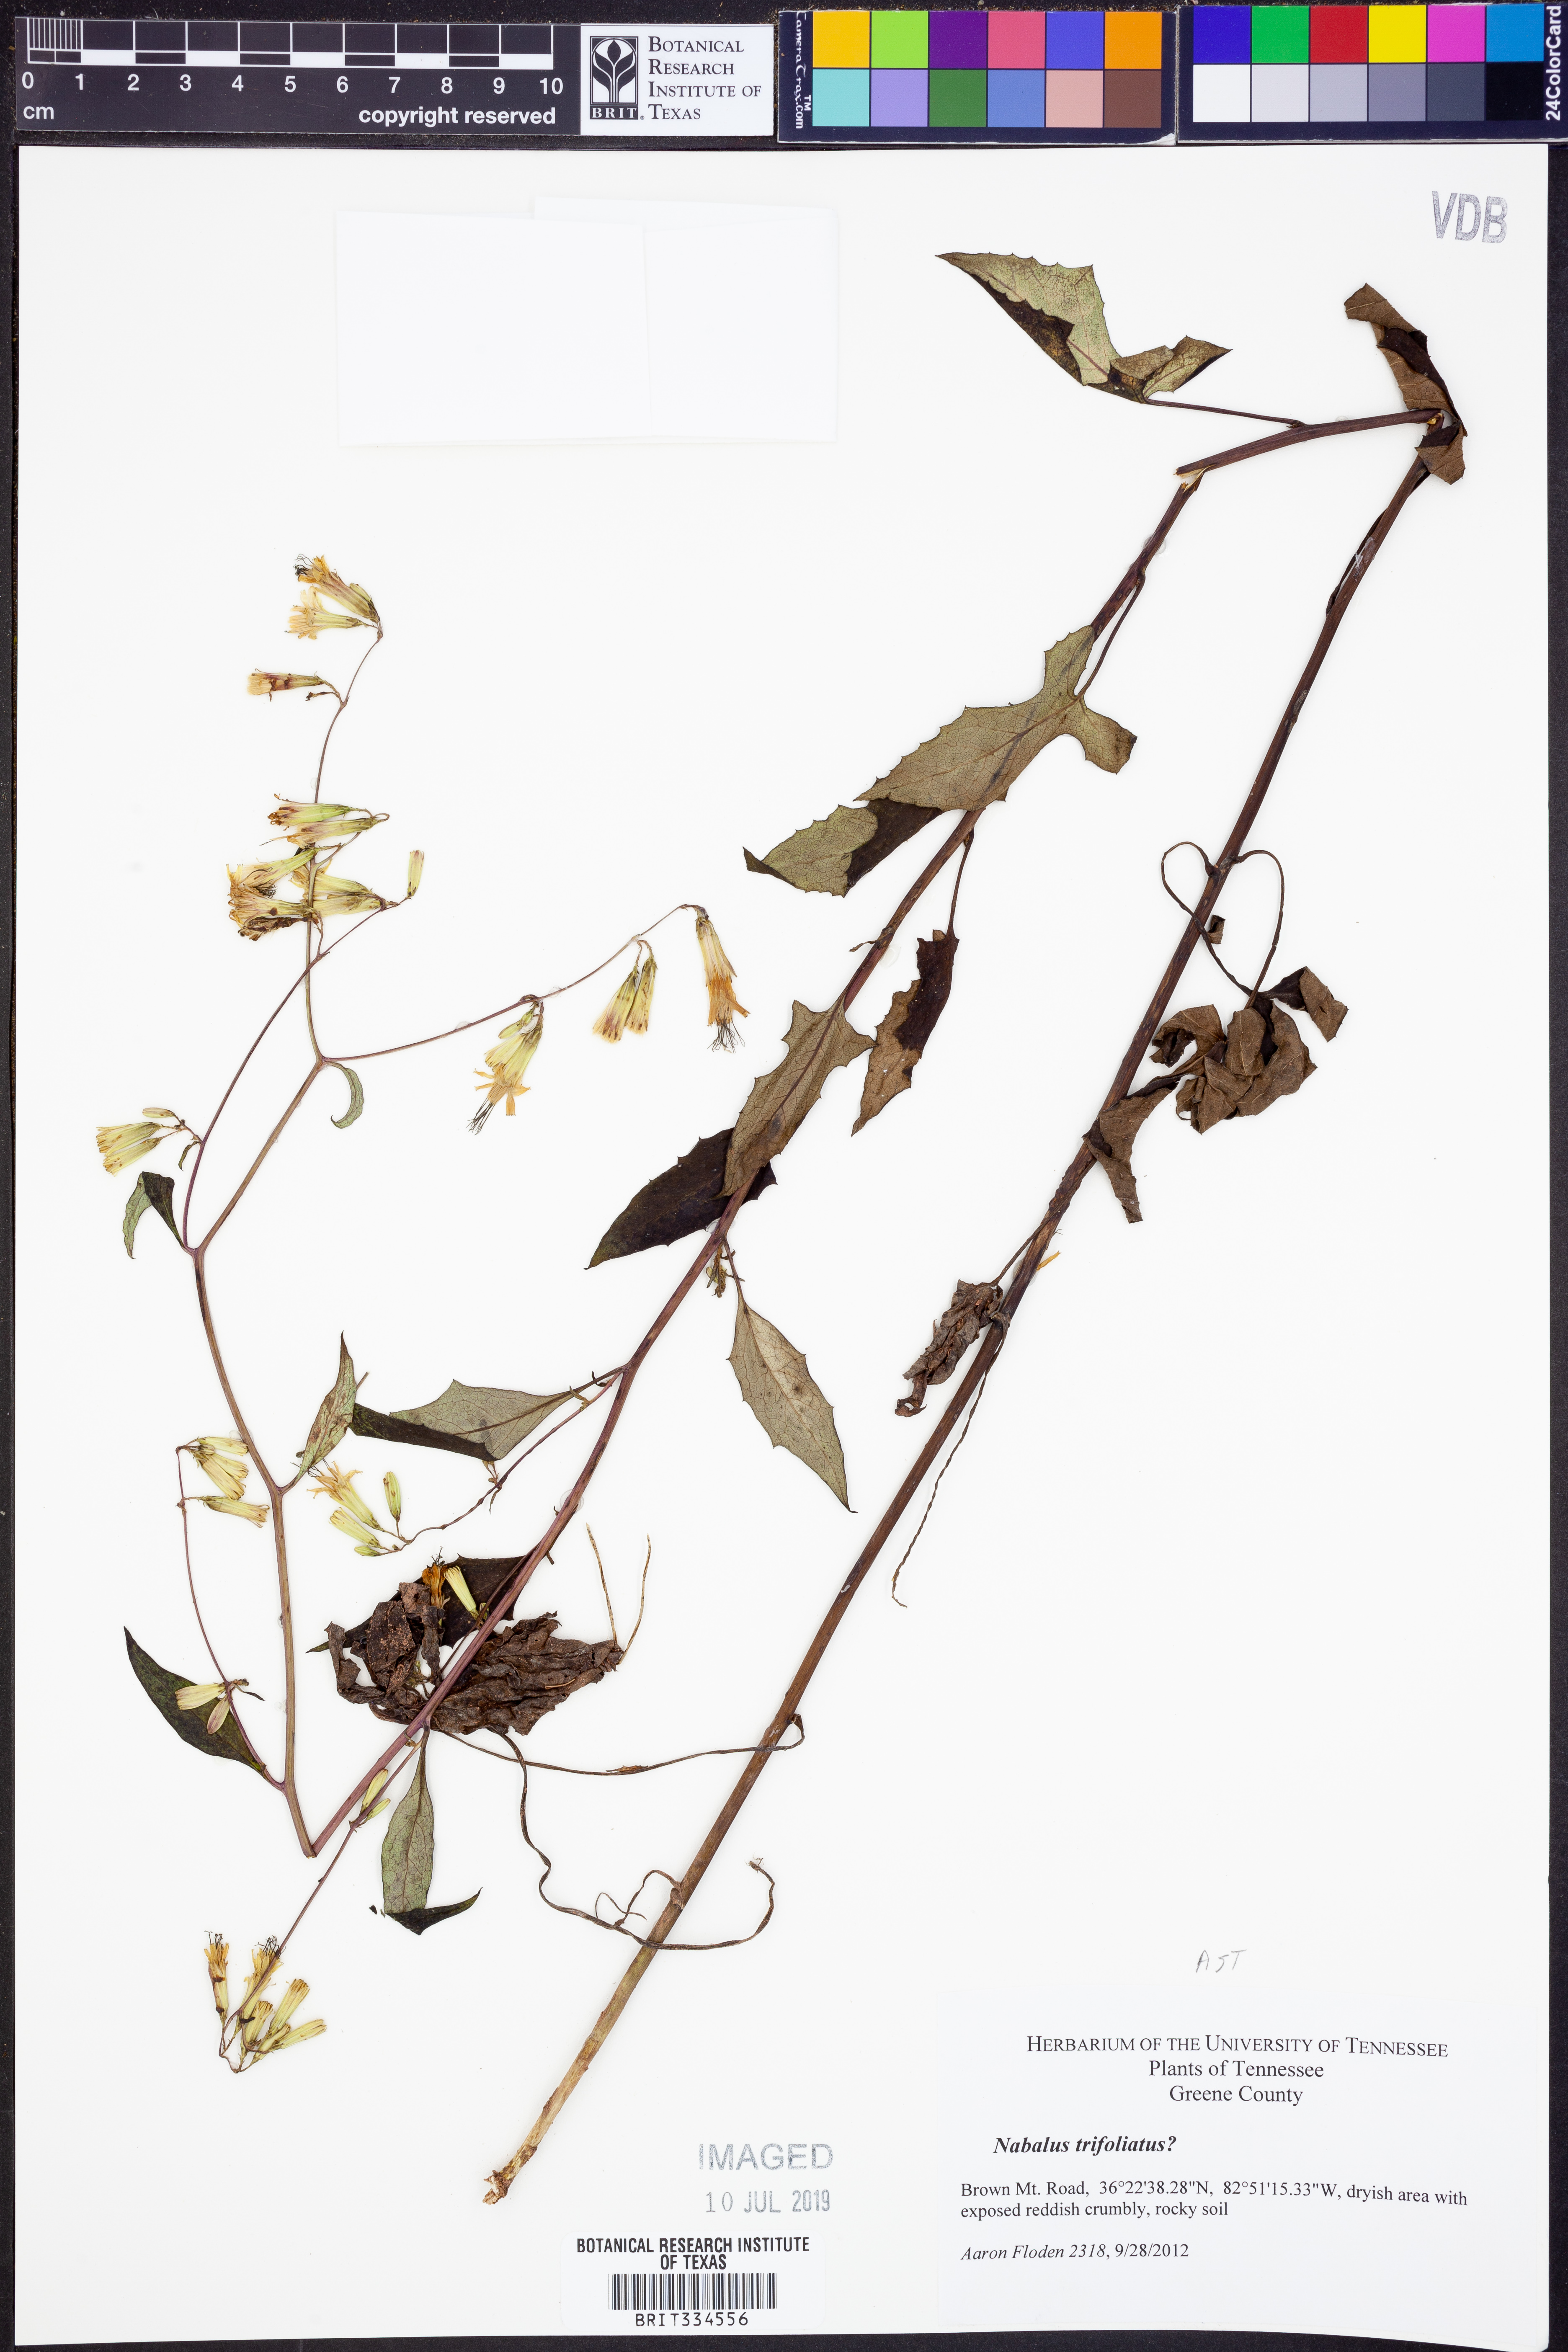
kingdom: Plantae
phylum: Tracheophyta
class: Magnoliopsida
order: Asterales
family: Asteraceae
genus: Nabalus
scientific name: Nabalus trifoliolatus
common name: Gall-of-the-earth
